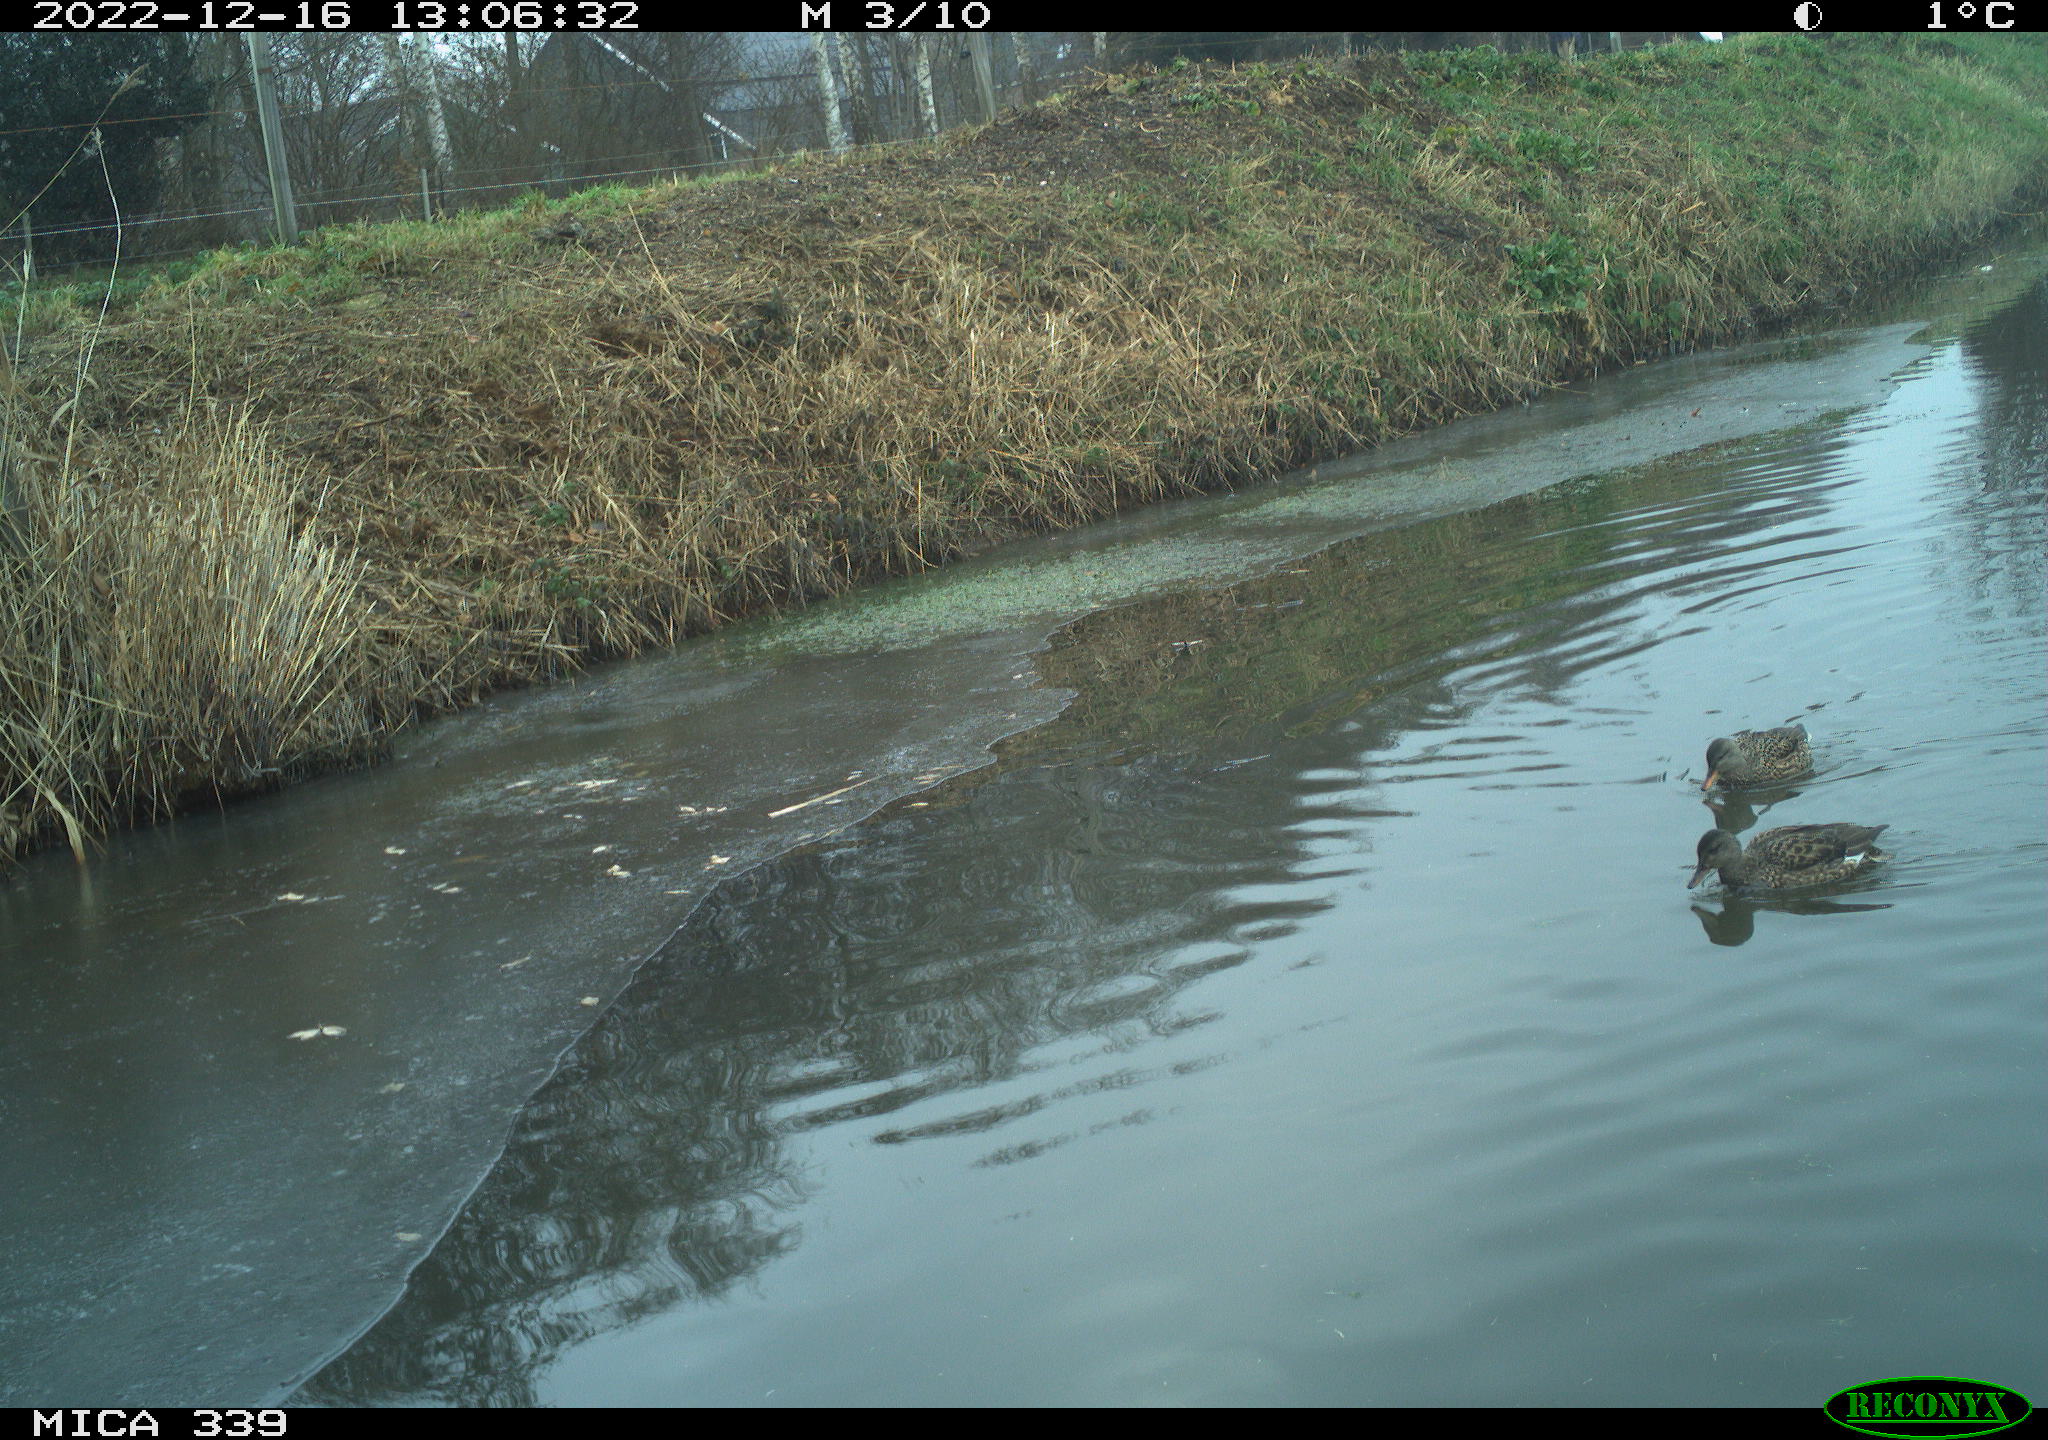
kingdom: Animalia
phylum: Chordata
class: Aves
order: Anseriformes
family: Anatidae
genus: Anas
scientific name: Anas
